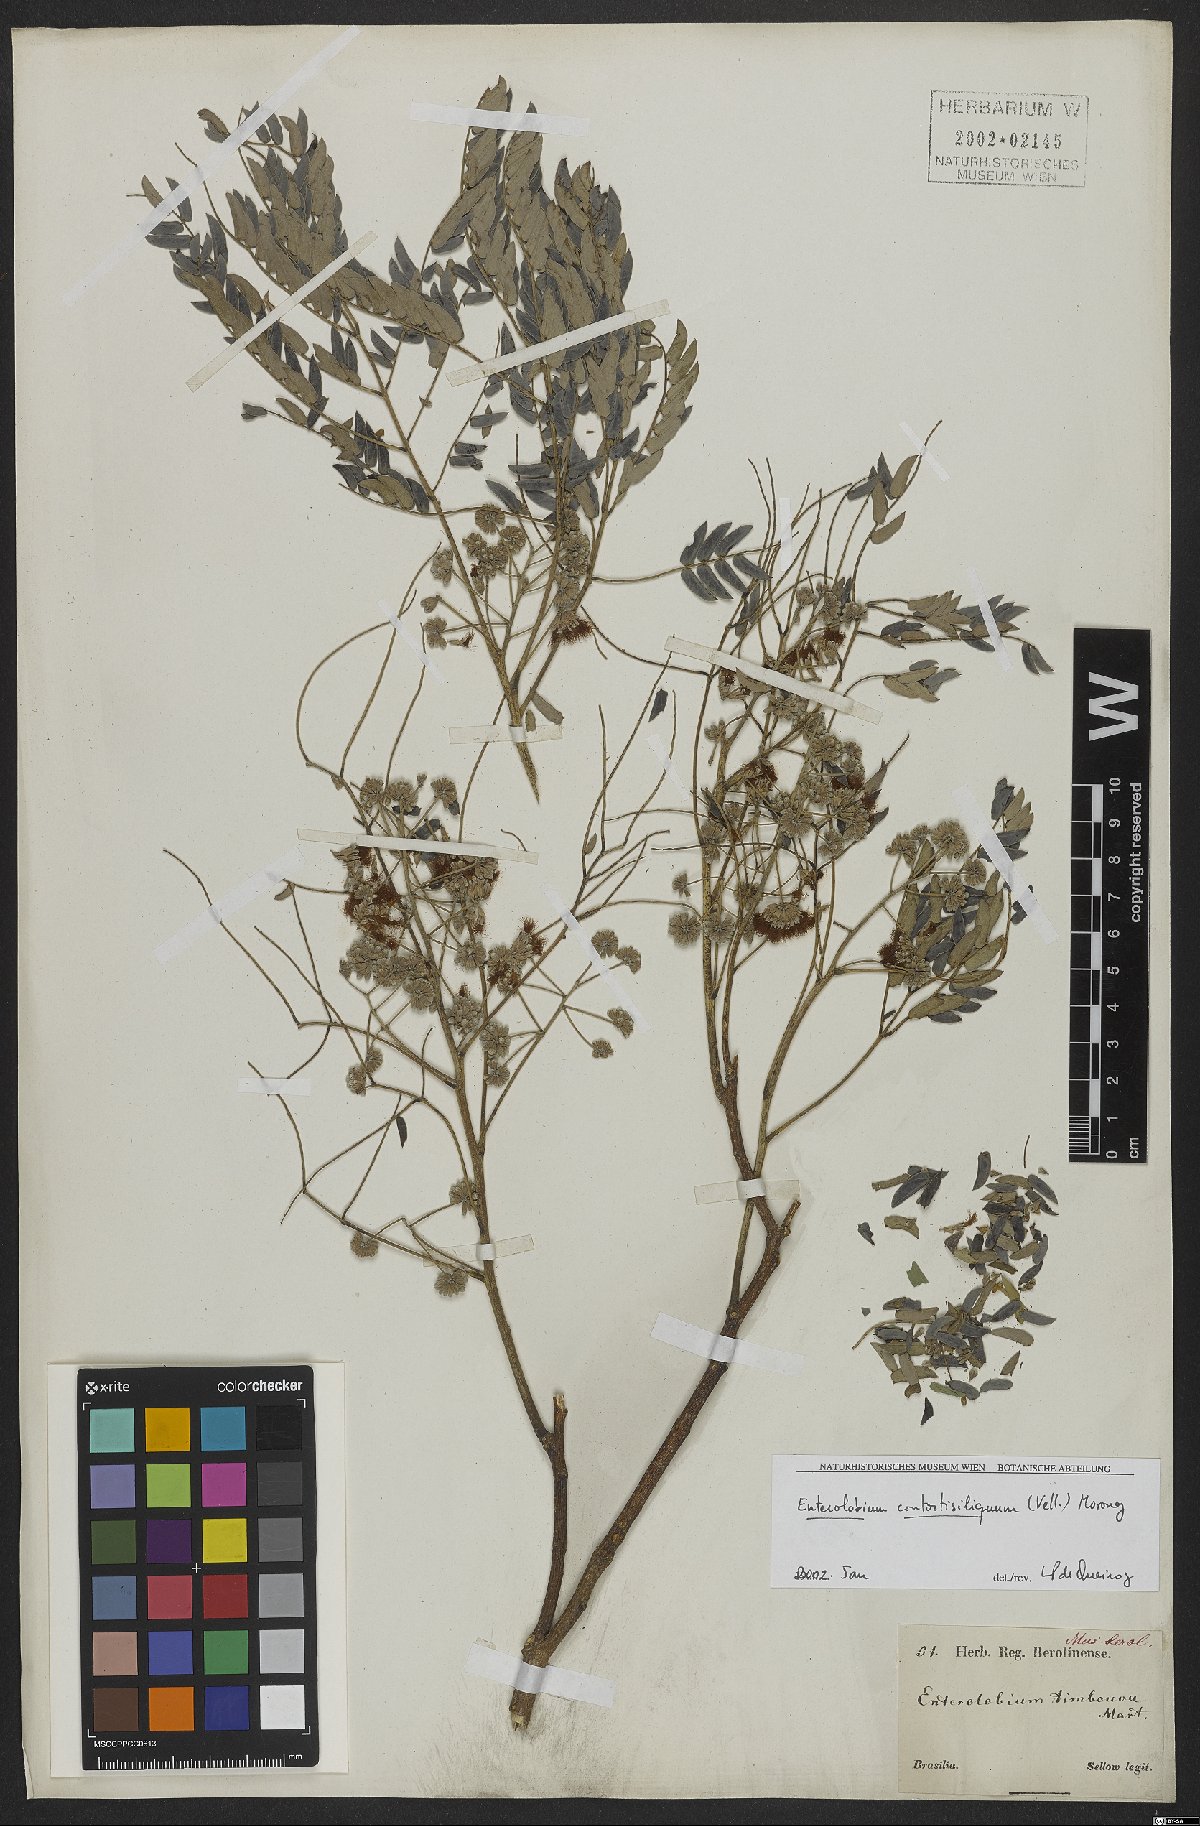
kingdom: Plantae
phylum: Tracheophyta
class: Magnoliopsida
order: Fabales
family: Fabaceae
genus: Enterolobium
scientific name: Enterolobium contortisiliquum
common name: Pacara earpod tree
